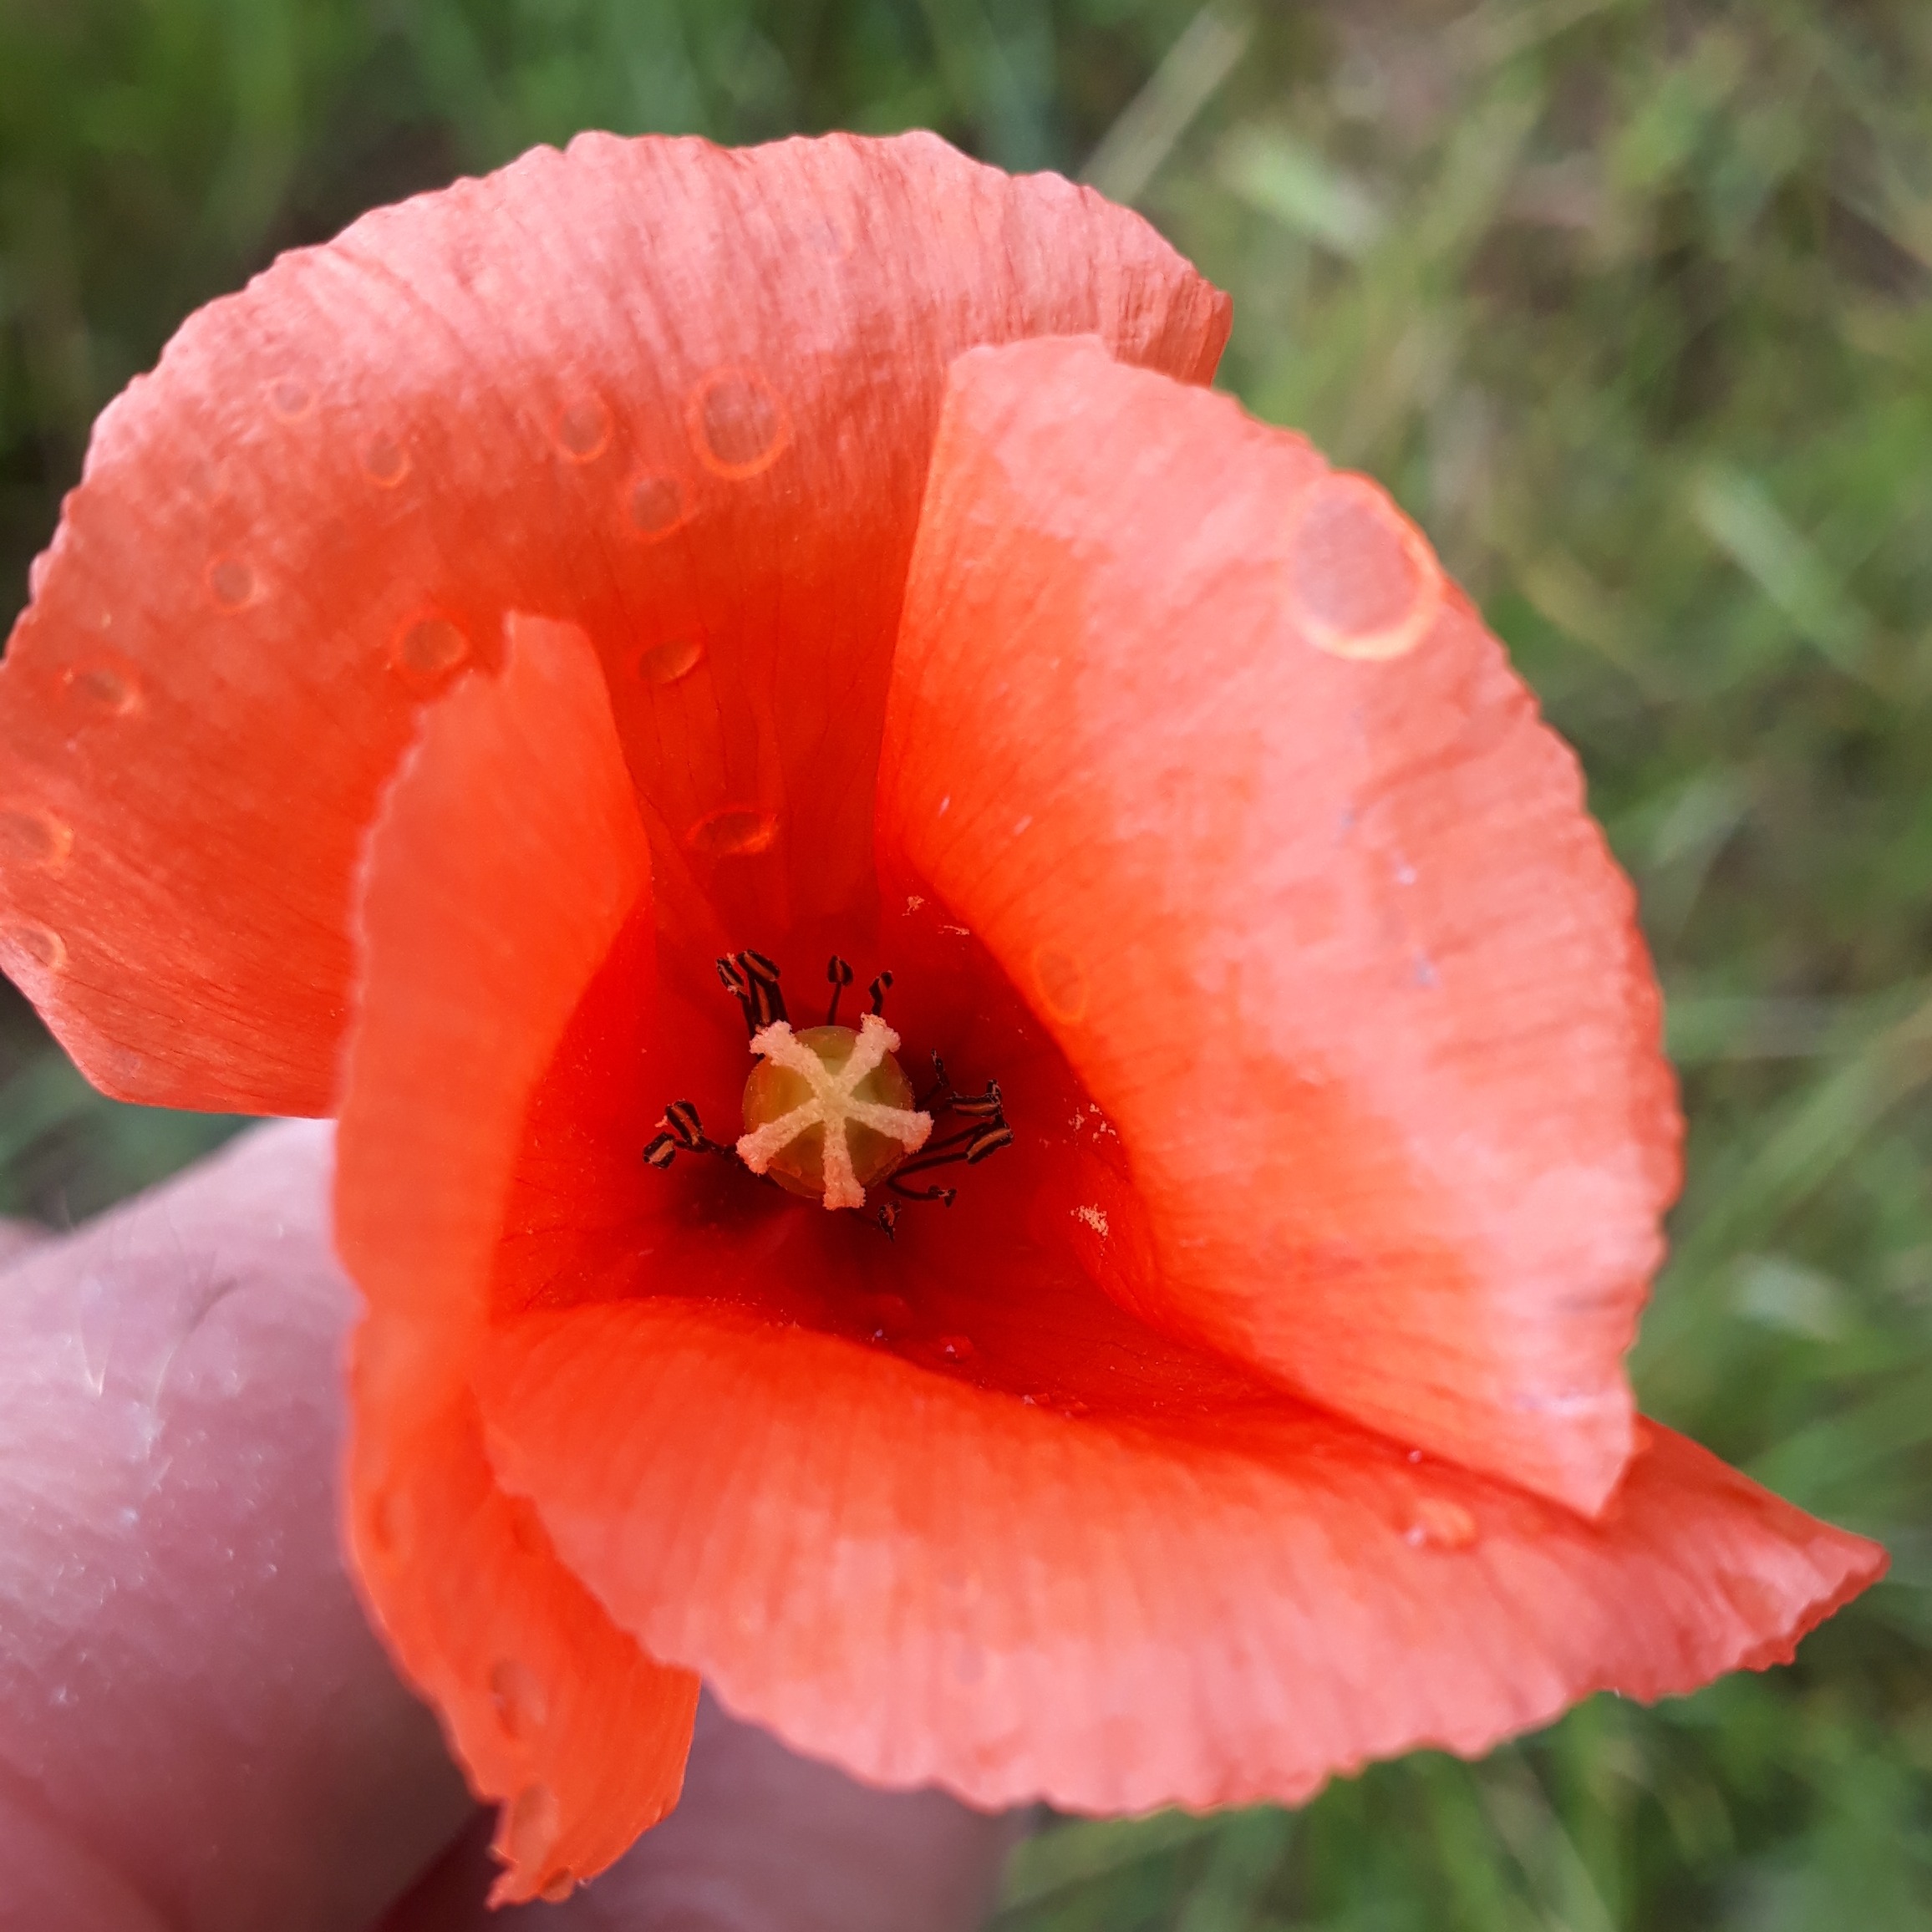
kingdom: Plantae
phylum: Tracheophyta
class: Magnoliopsida
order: Ranunculales
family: Papaveraceae
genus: Papaver
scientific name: Papaver dubium
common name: Gærde-valmue
